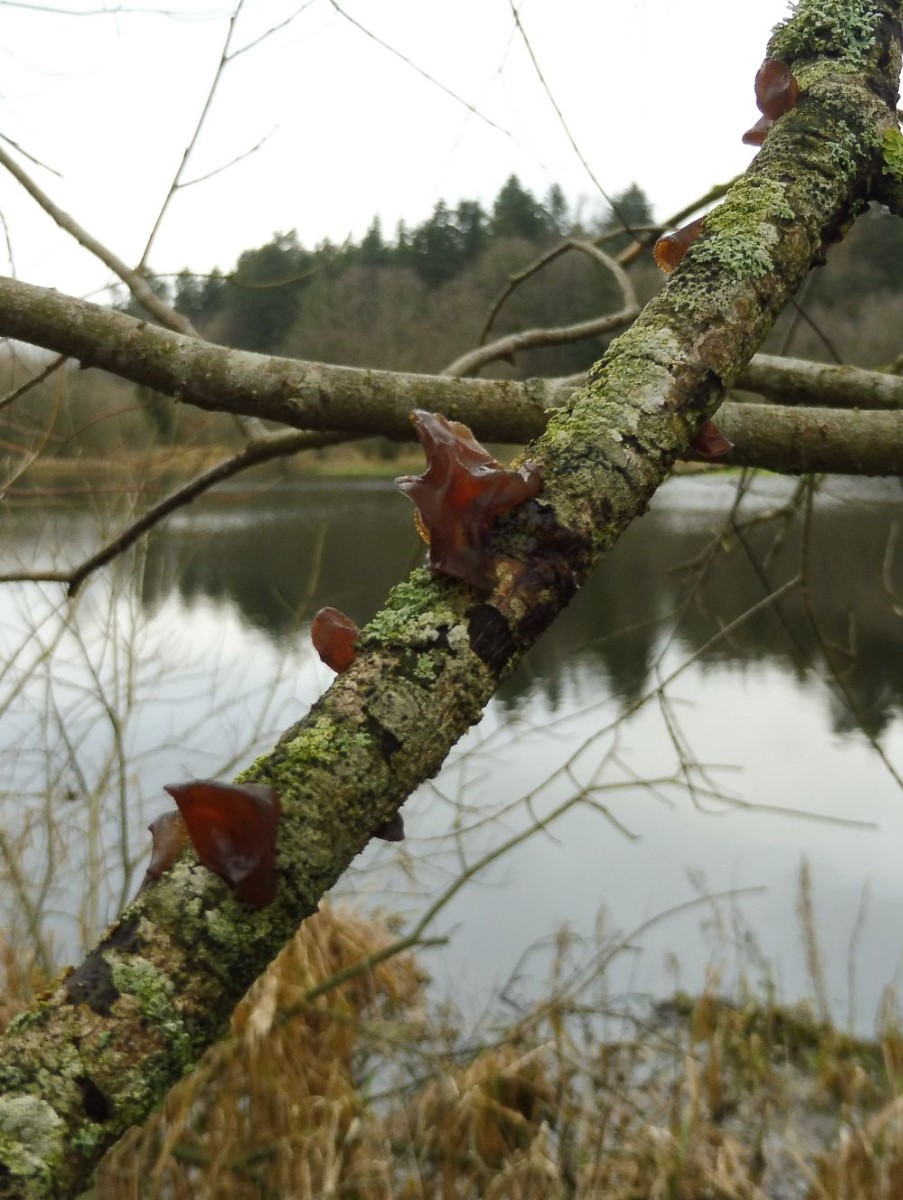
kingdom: Fungi
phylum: Basidiomycota
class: Agaricomycetes
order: Auriculariales
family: Auriculariaceae
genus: Exidia
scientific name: Exidia recisa
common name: pile-bævretop
